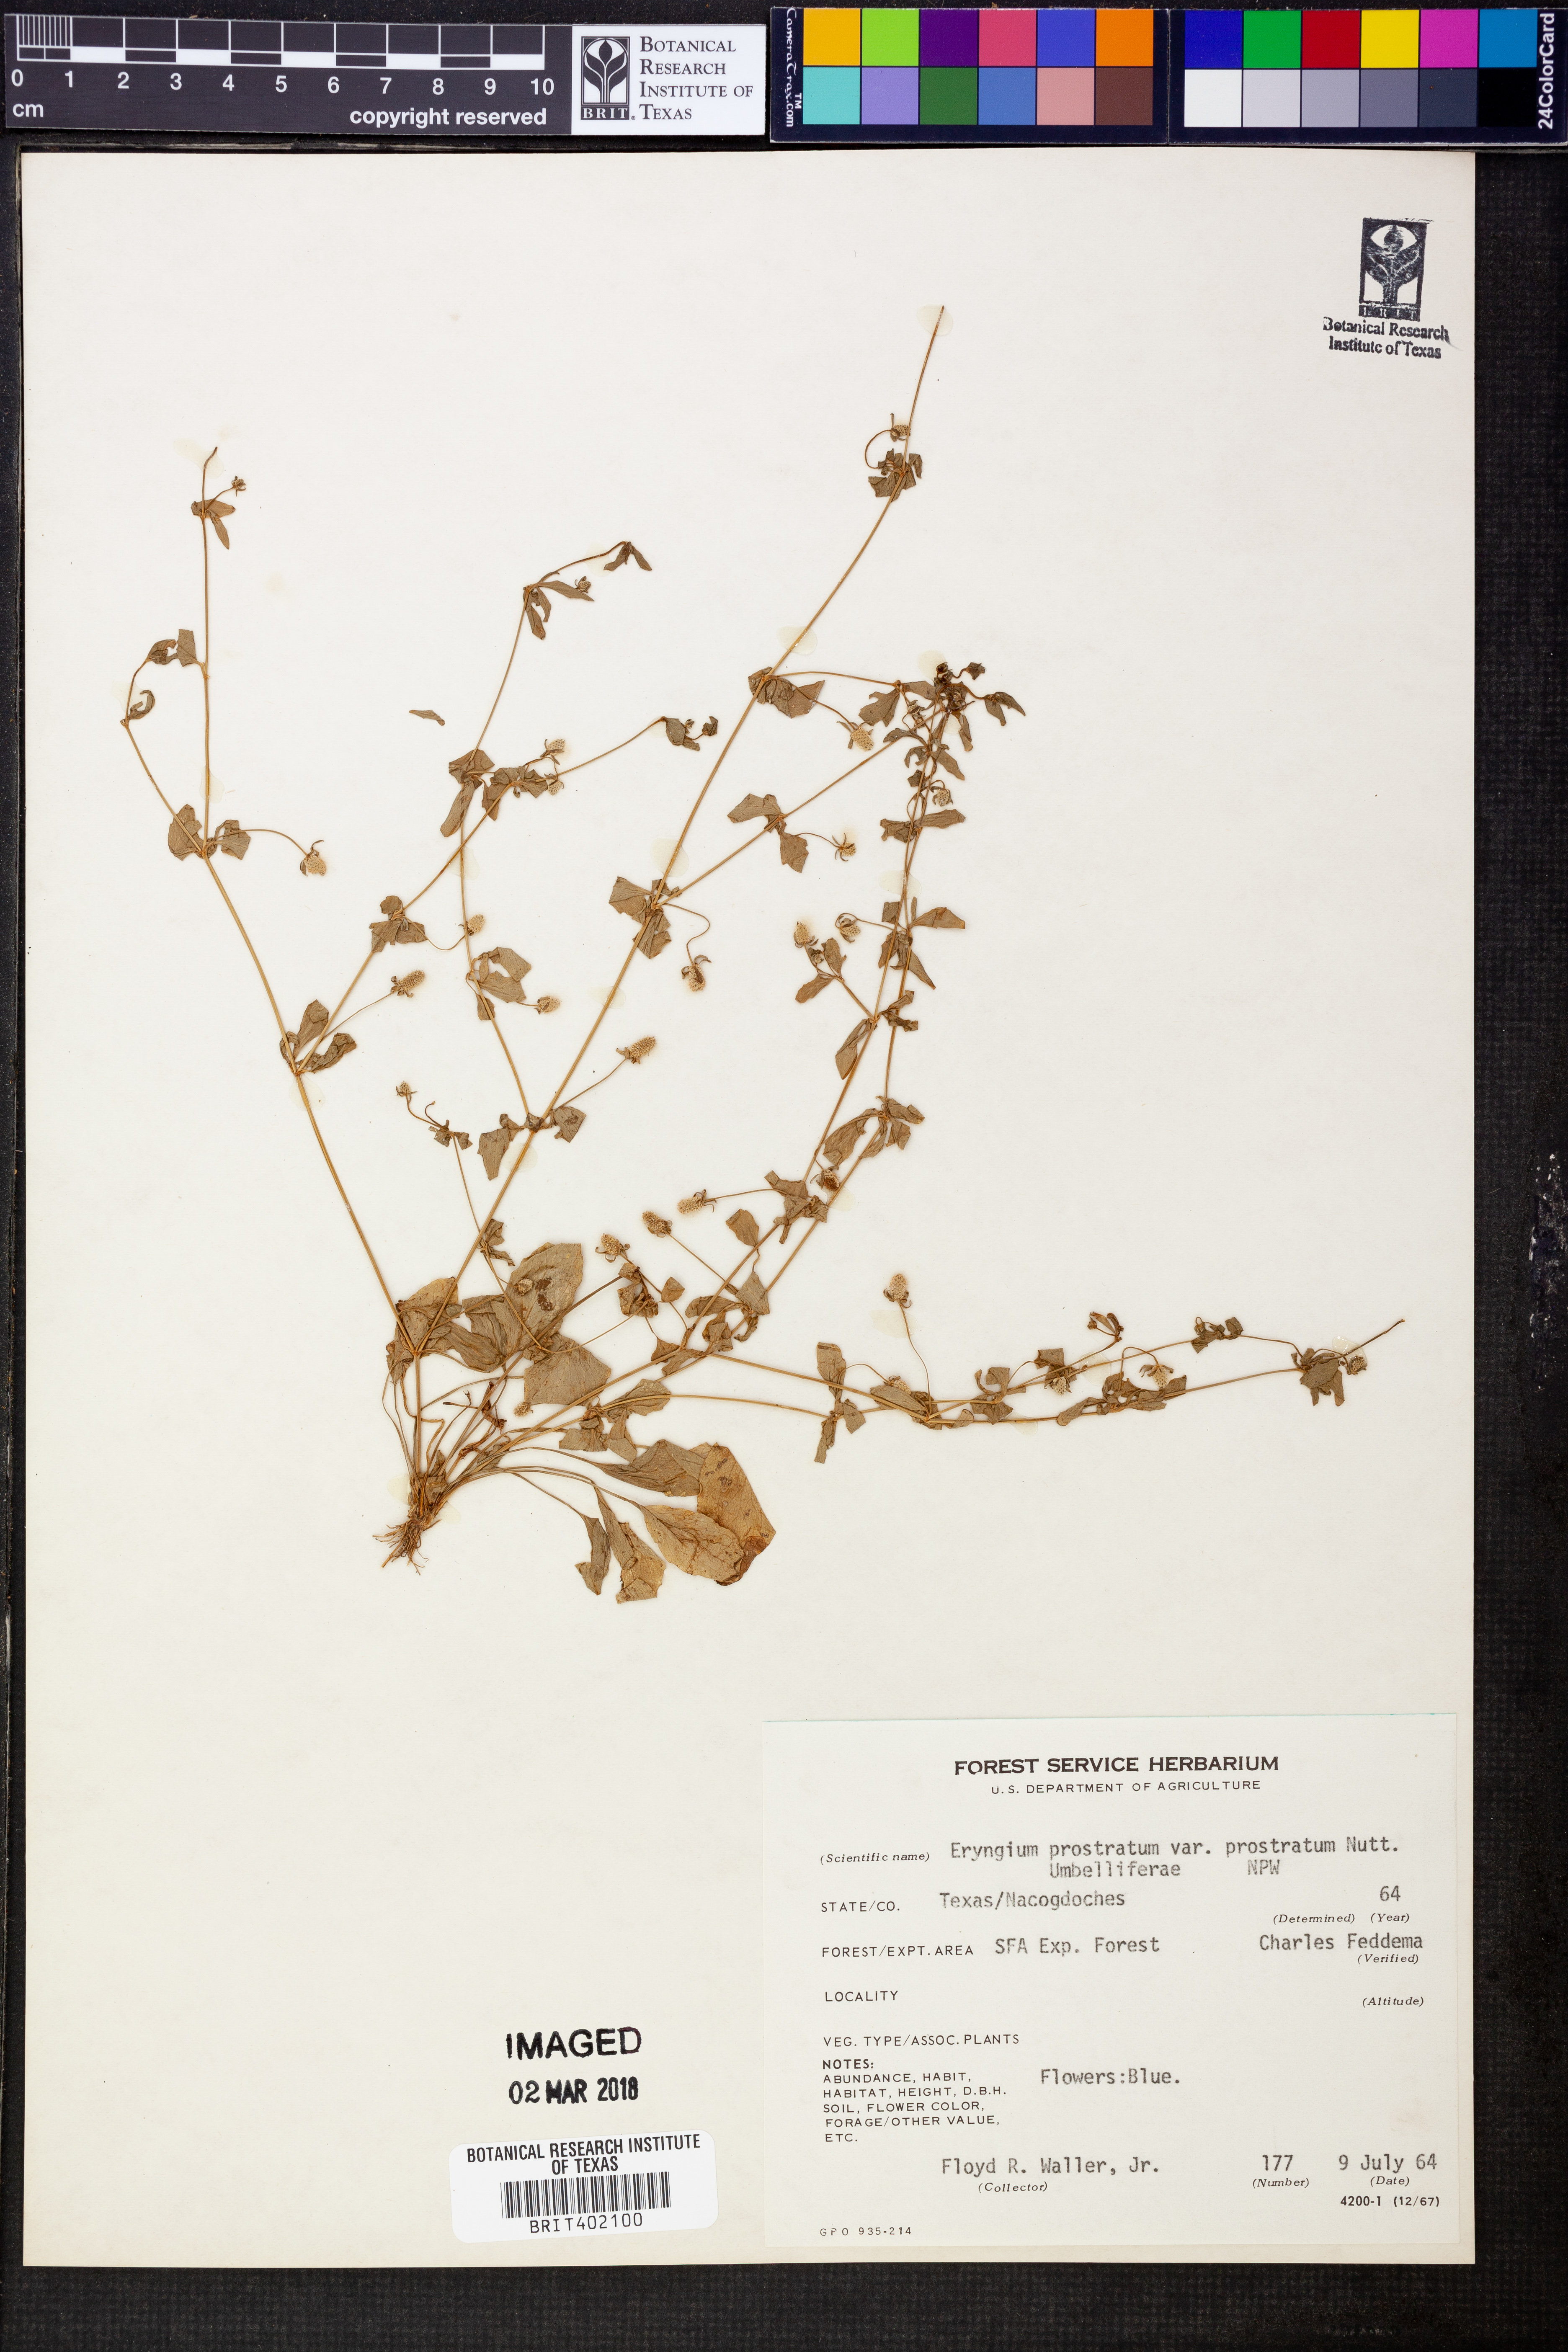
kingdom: Plantae
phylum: Tracheophyta
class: Magnoliopsida
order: Apiales
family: Apiaceae
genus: Eryngium
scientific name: Eryngium prostratum
